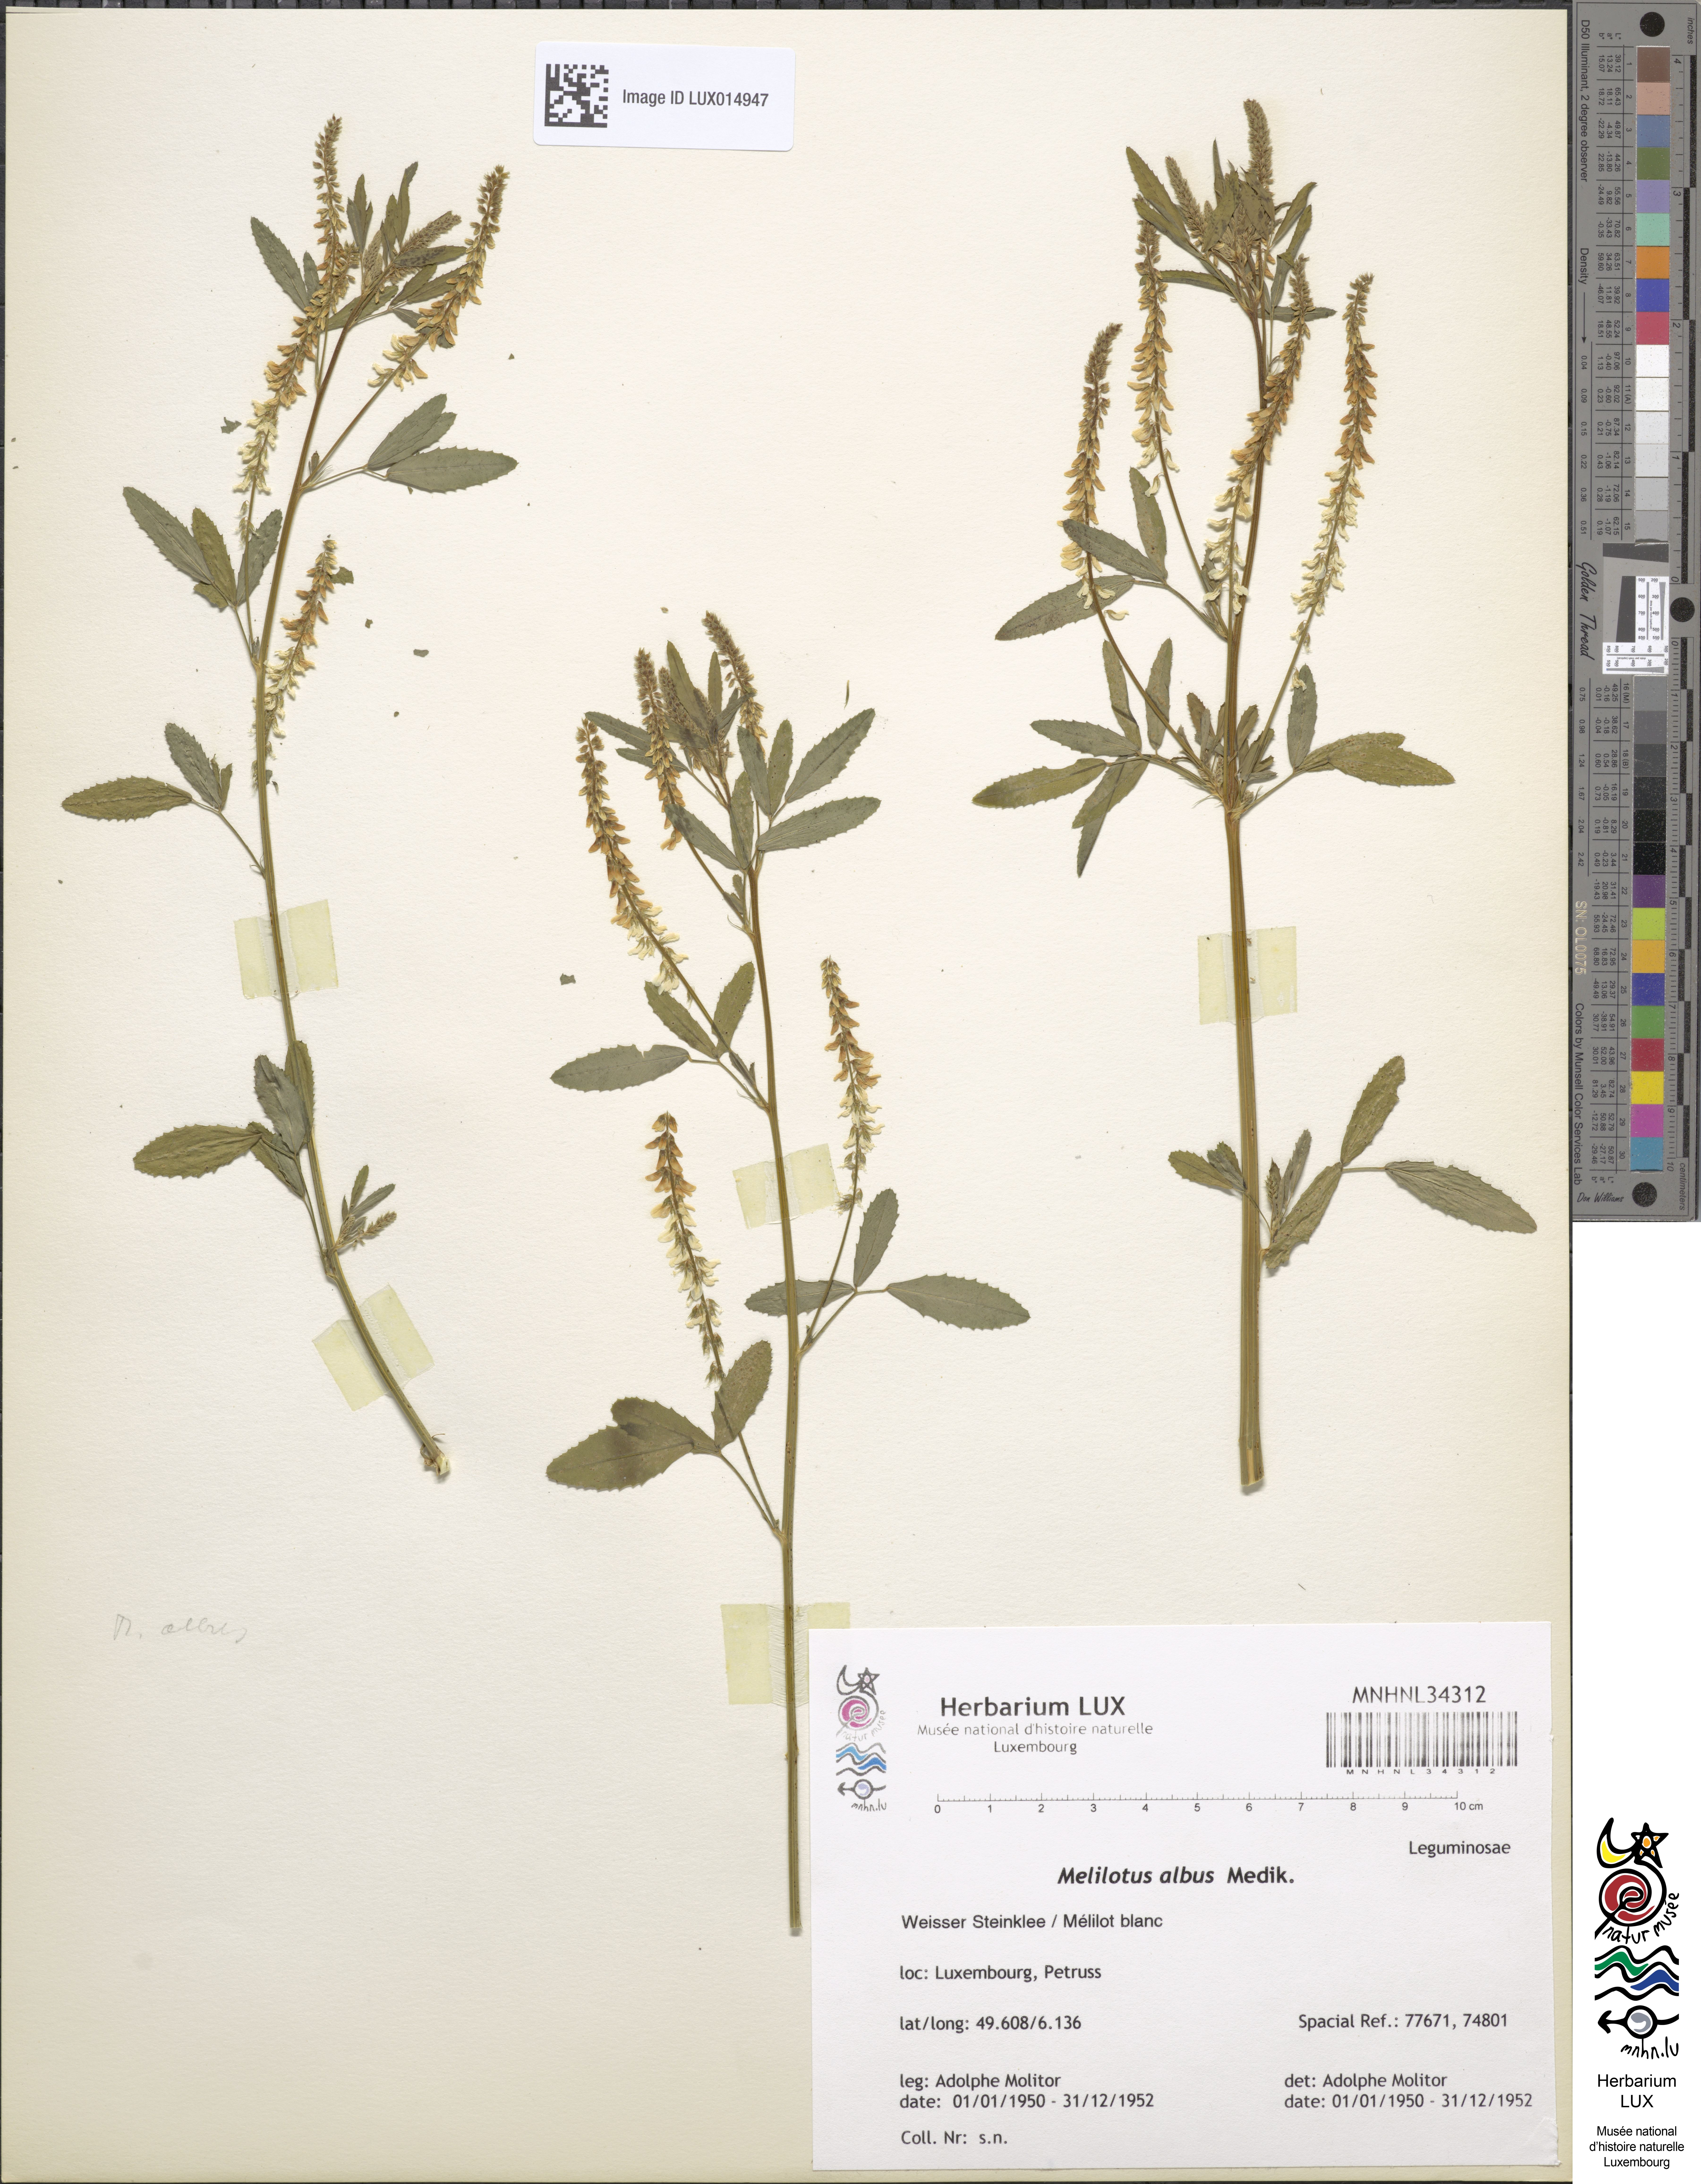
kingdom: Plantae
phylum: Tracheophyta
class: Magnoliopsida
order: Fabales
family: Fabaceae
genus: Melilotus
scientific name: Melilotus albus
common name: White melilot
